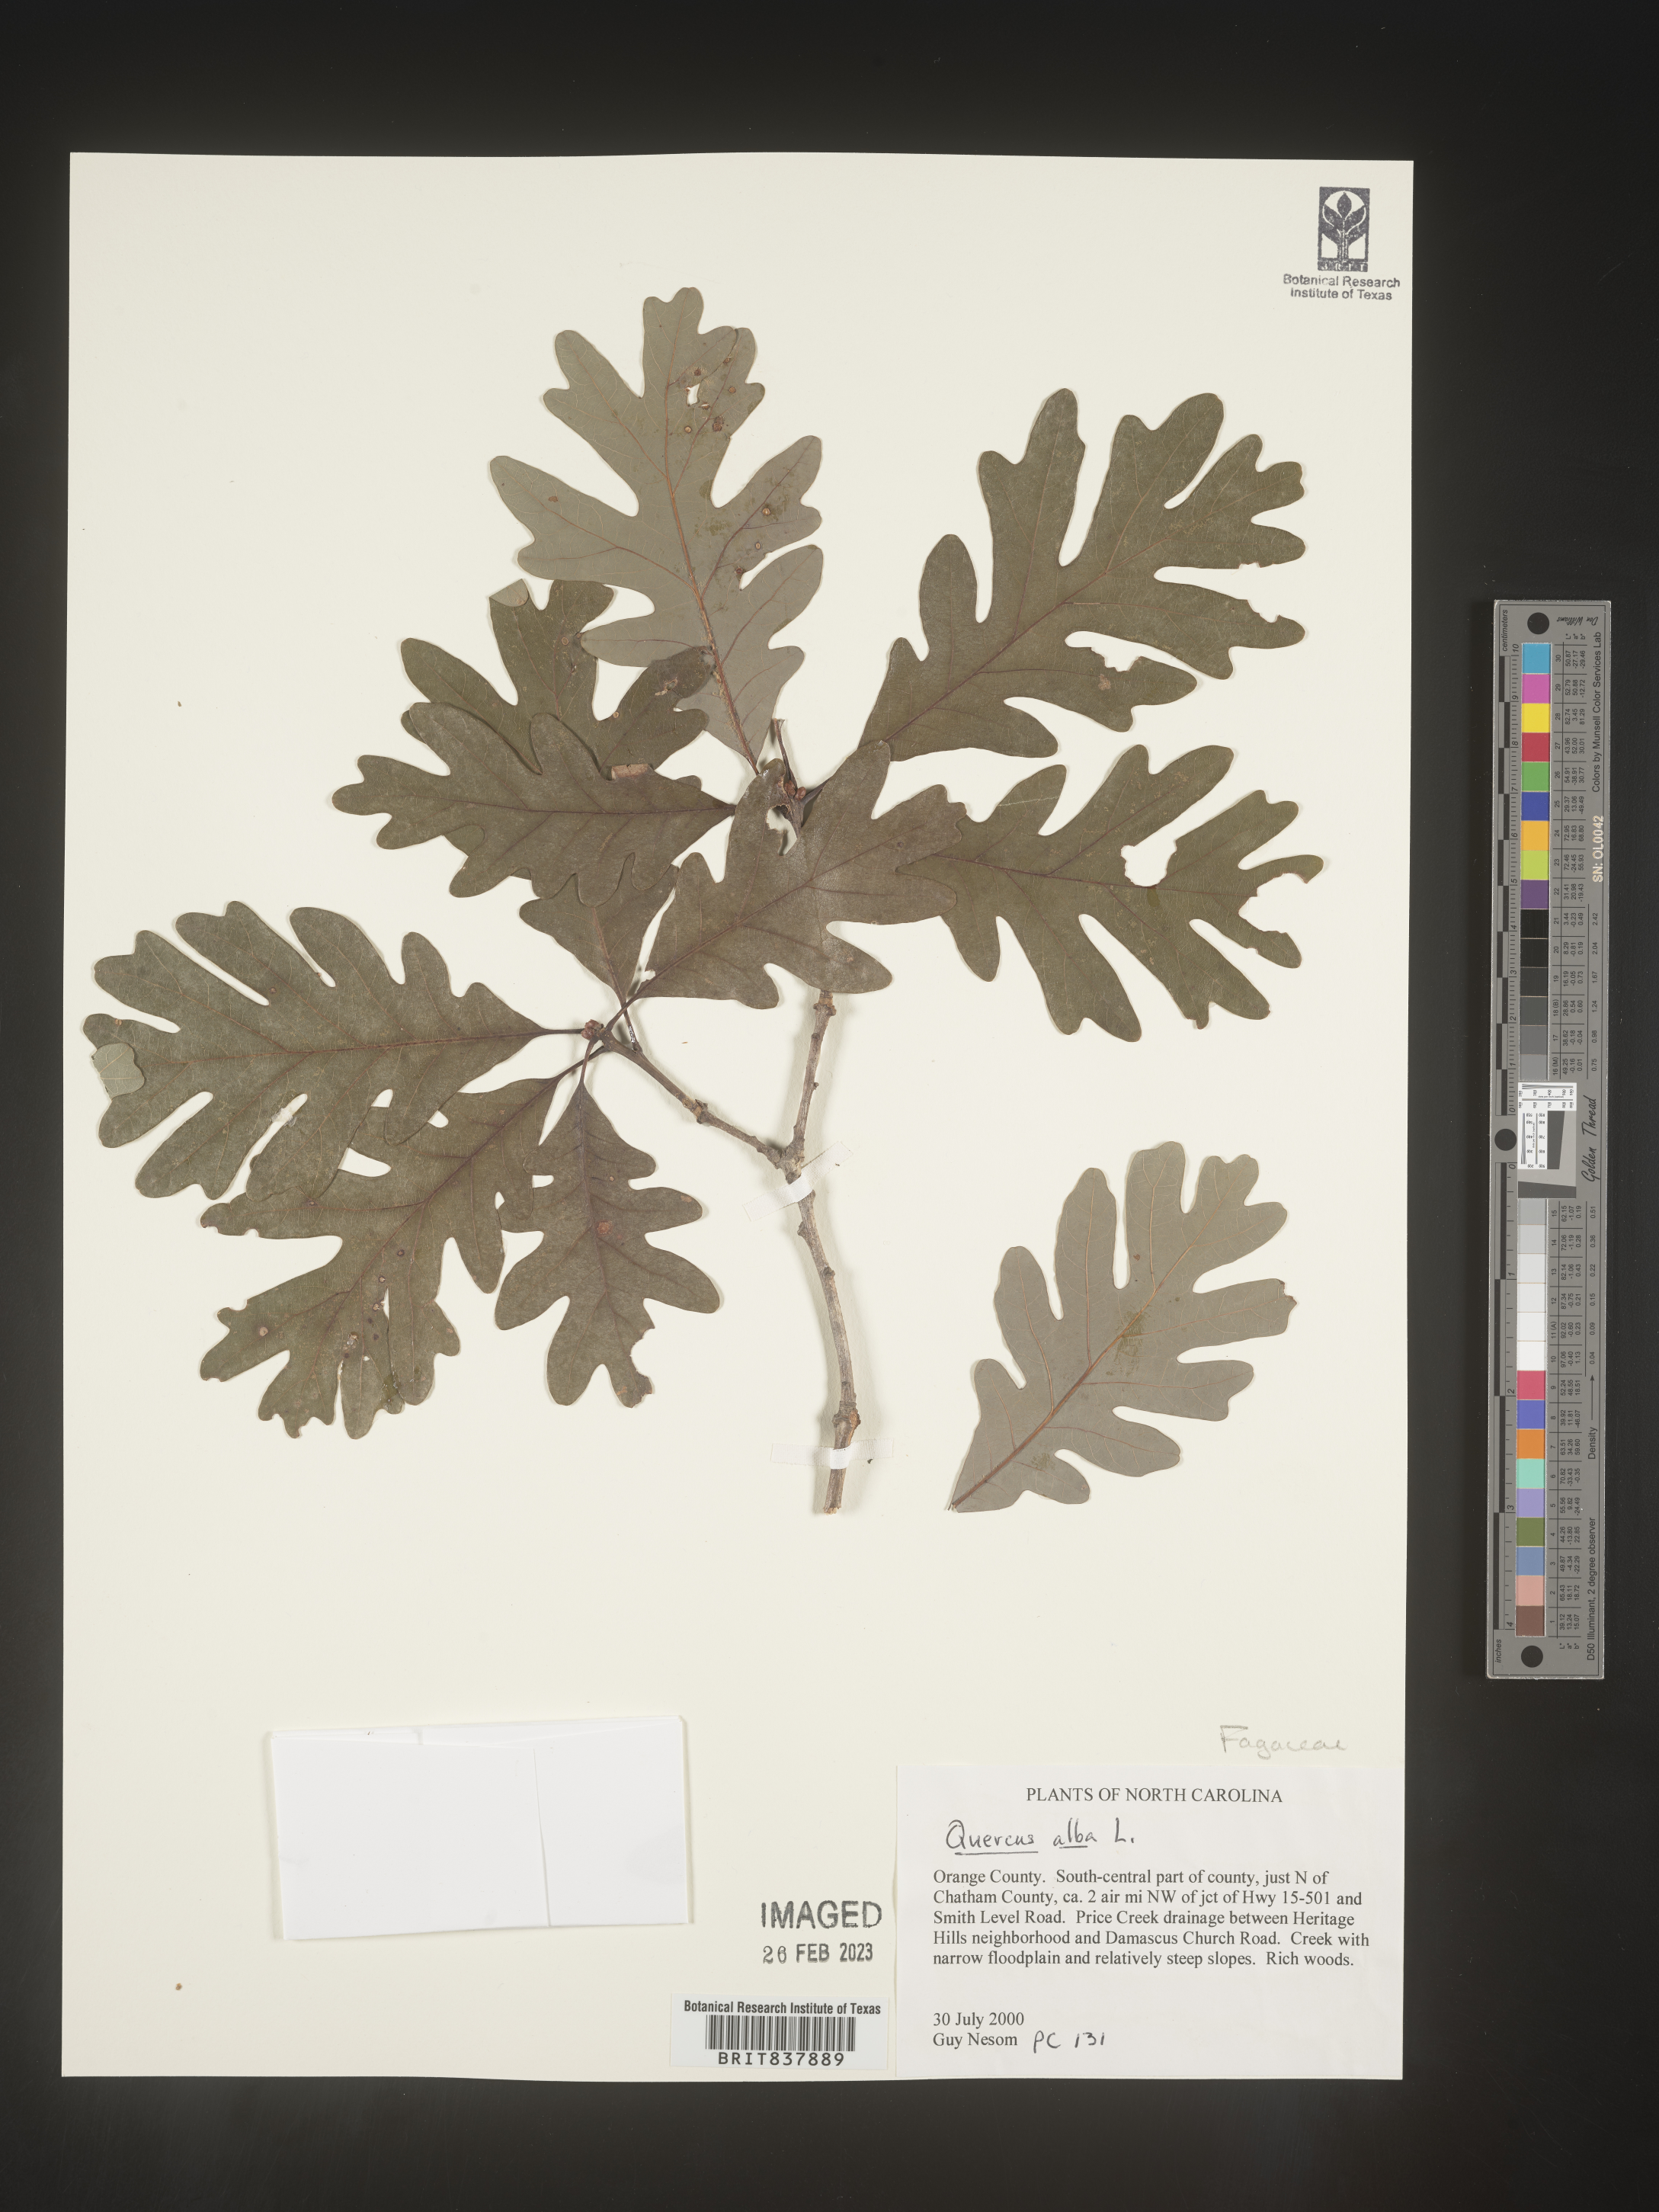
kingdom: Plantae
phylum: Tracheophyta
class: Magnoliopsida
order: Fagales
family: Fagaceae
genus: Quercus
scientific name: Quercus alba
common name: White oak
